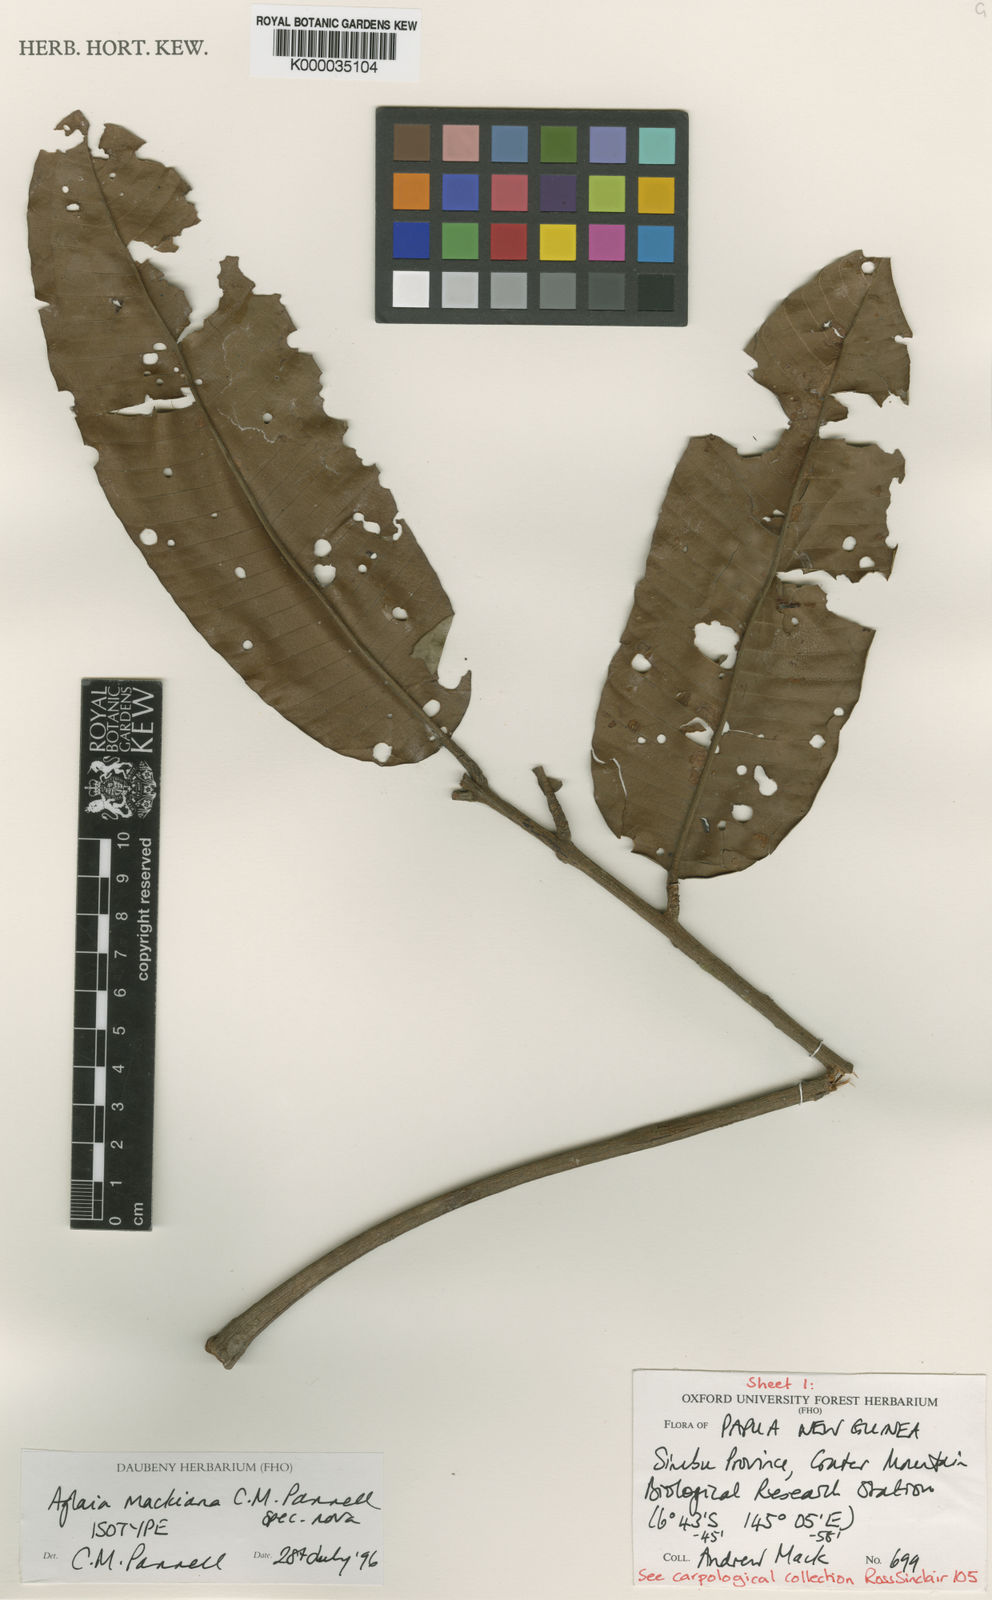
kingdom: Plantae
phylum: Tracheophyta
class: Magnoliopsida
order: Sapindales
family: Meliaceae
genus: Aglaia
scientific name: Aglaia mackiana
